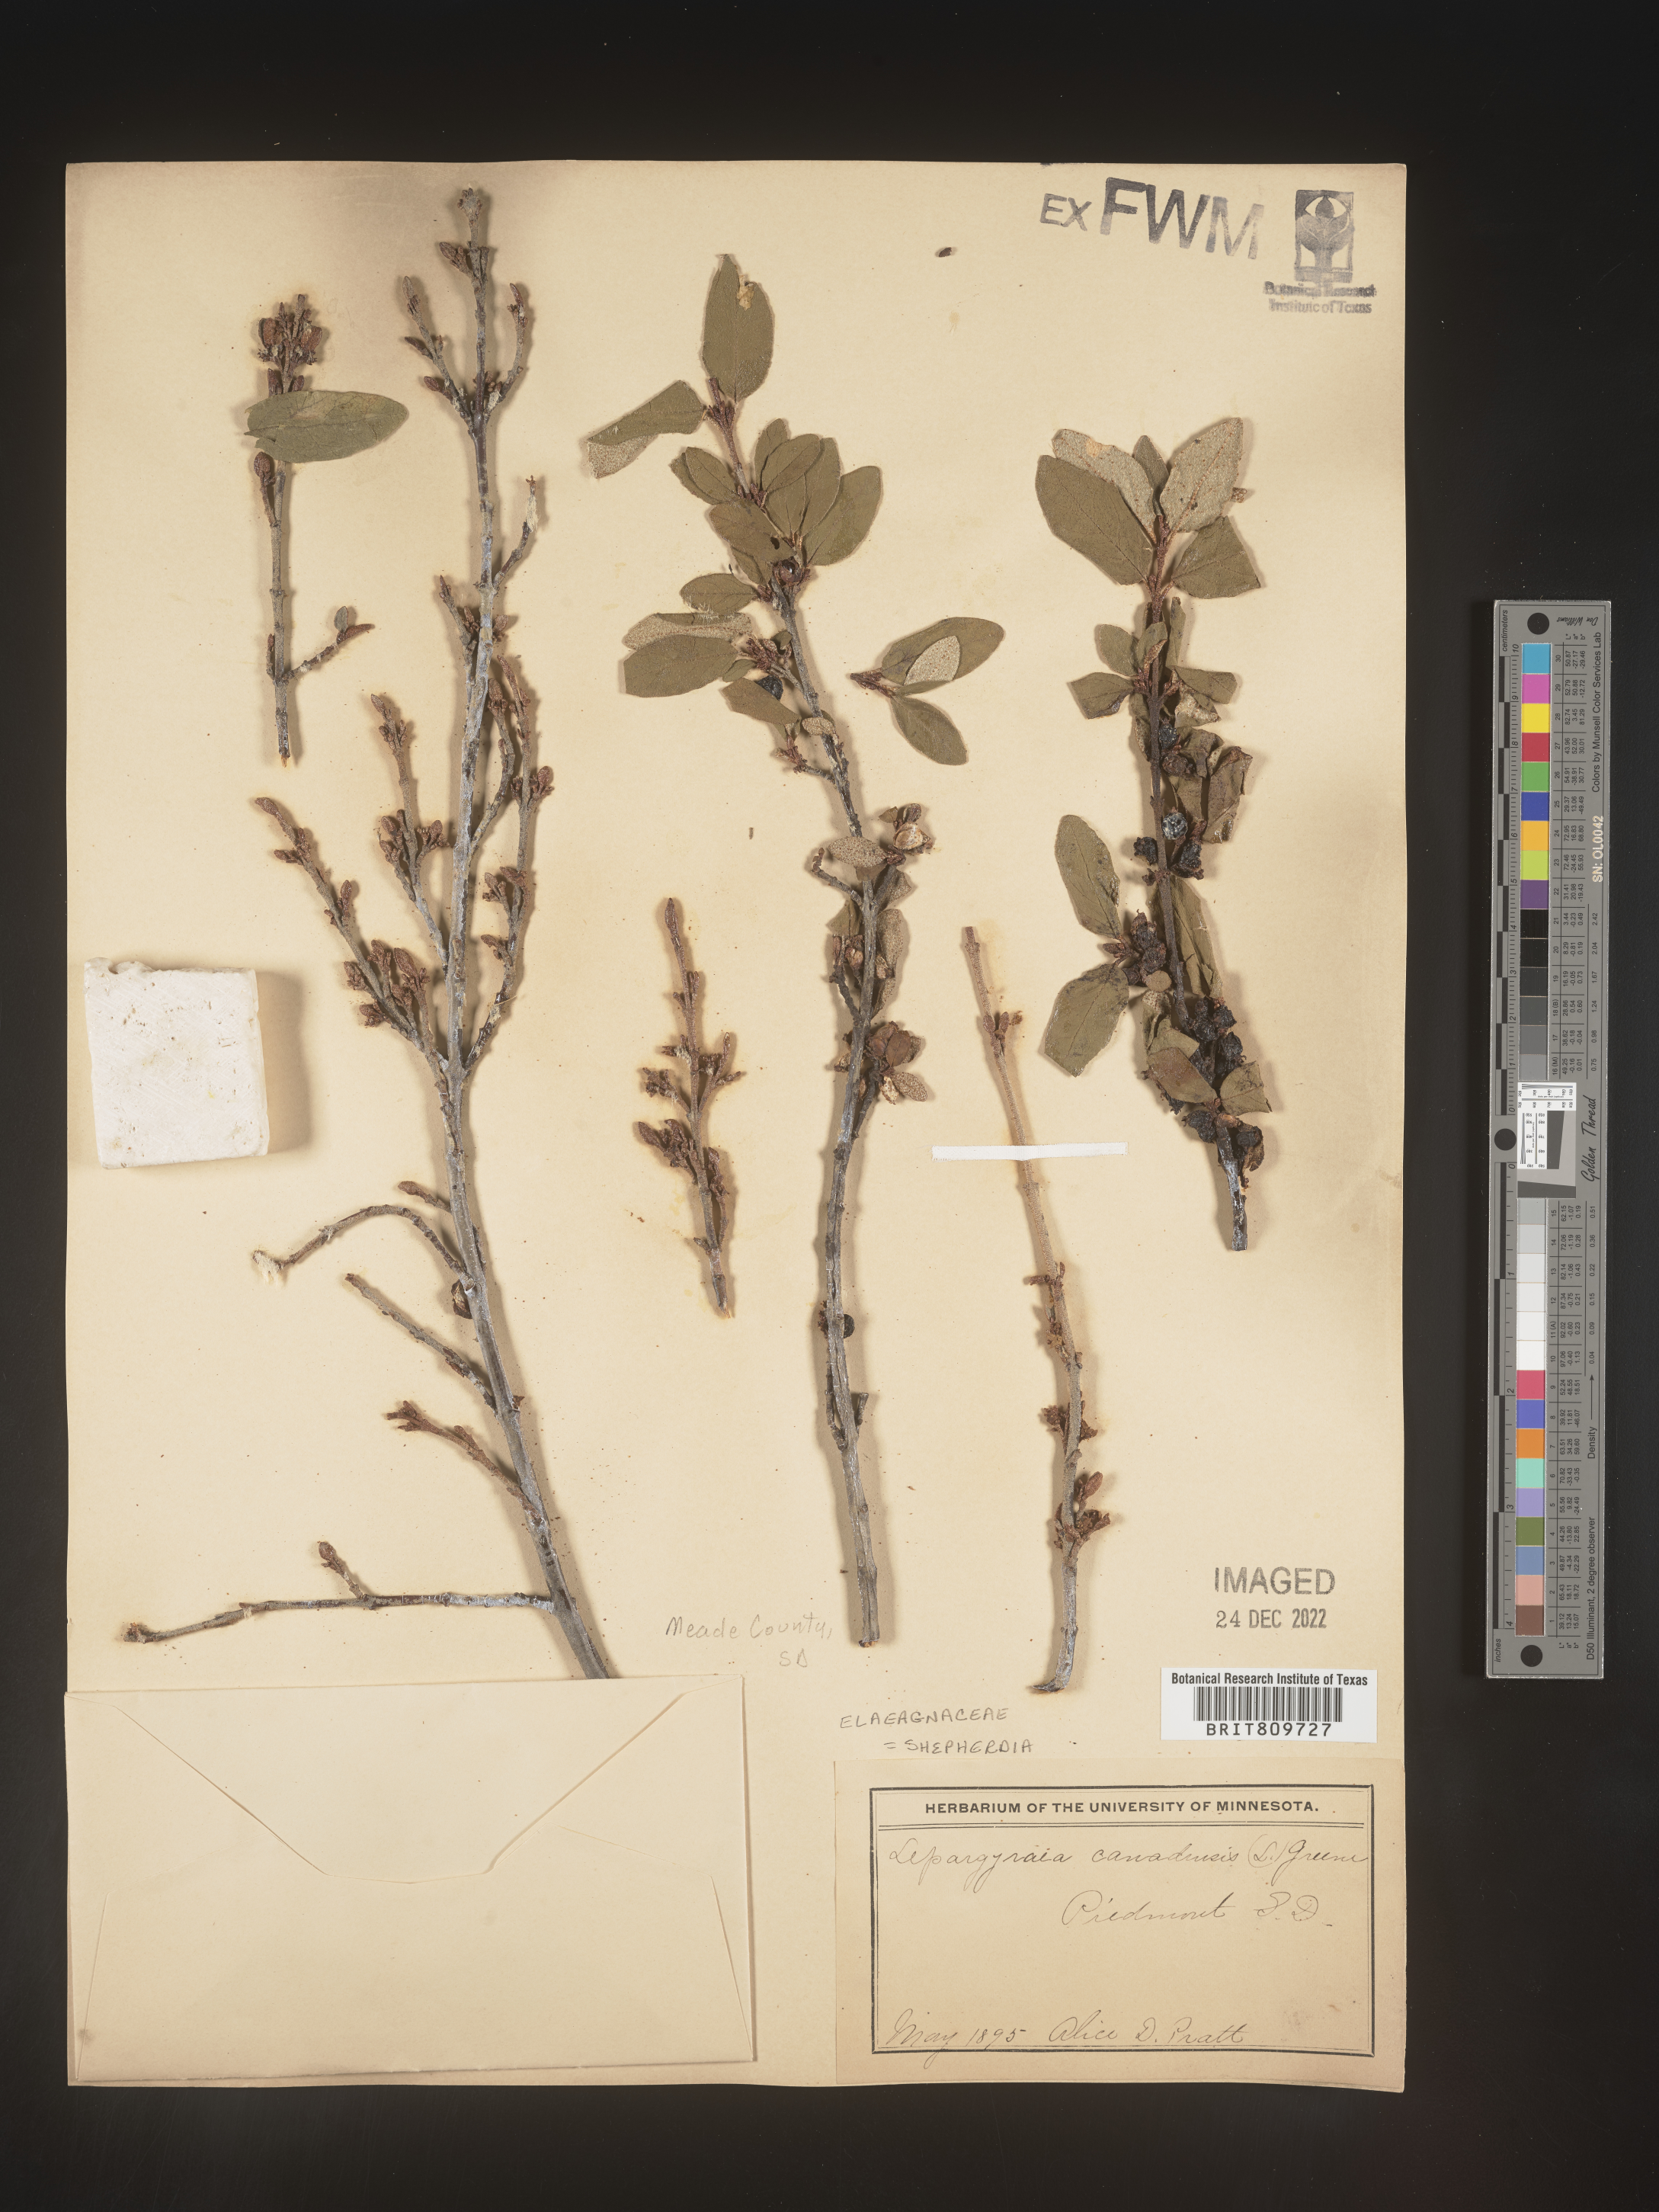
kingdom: Plantae
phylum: Tracheophyta
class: Magnoliopsida
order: Rosales
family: Elaeagnaceae
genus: Shepherdia
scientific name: Shepherdia canadensis
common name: Soapberry
